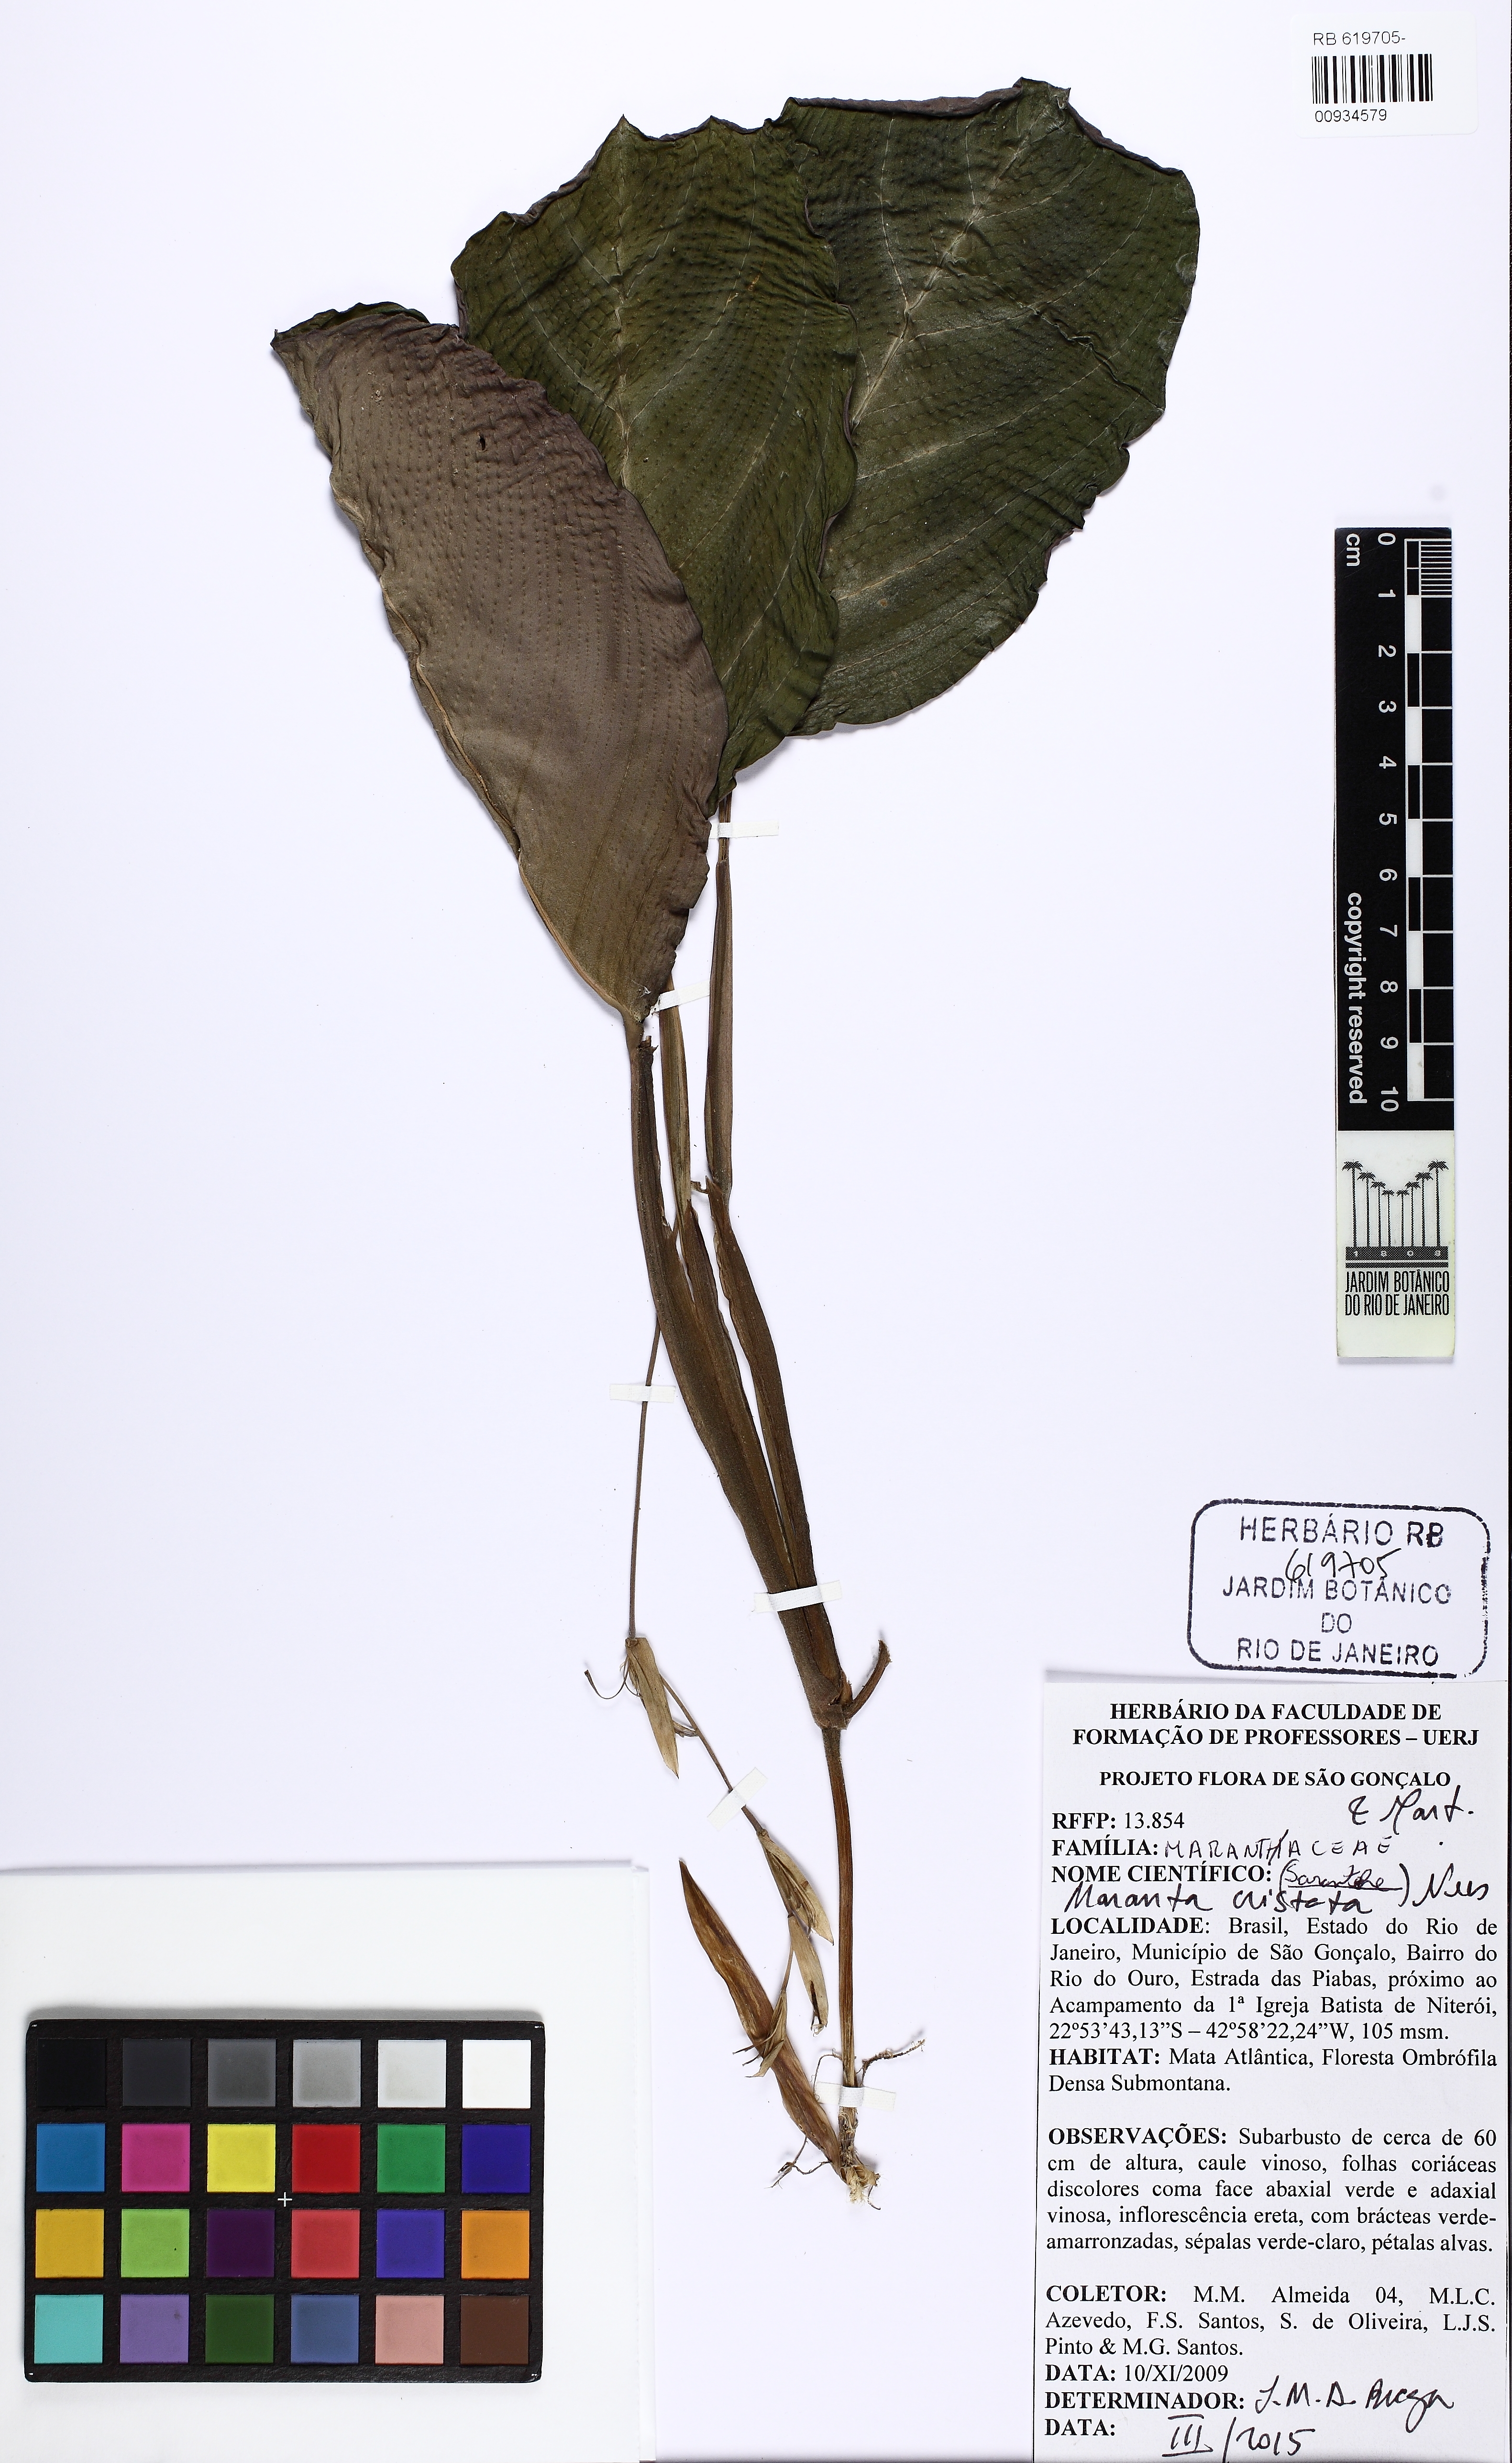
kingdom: Plantae
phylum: Tracheophyta
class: Liliopsida
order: Zingiberales
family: Marantaceae
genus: Maranta
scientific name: Maranta cristata
